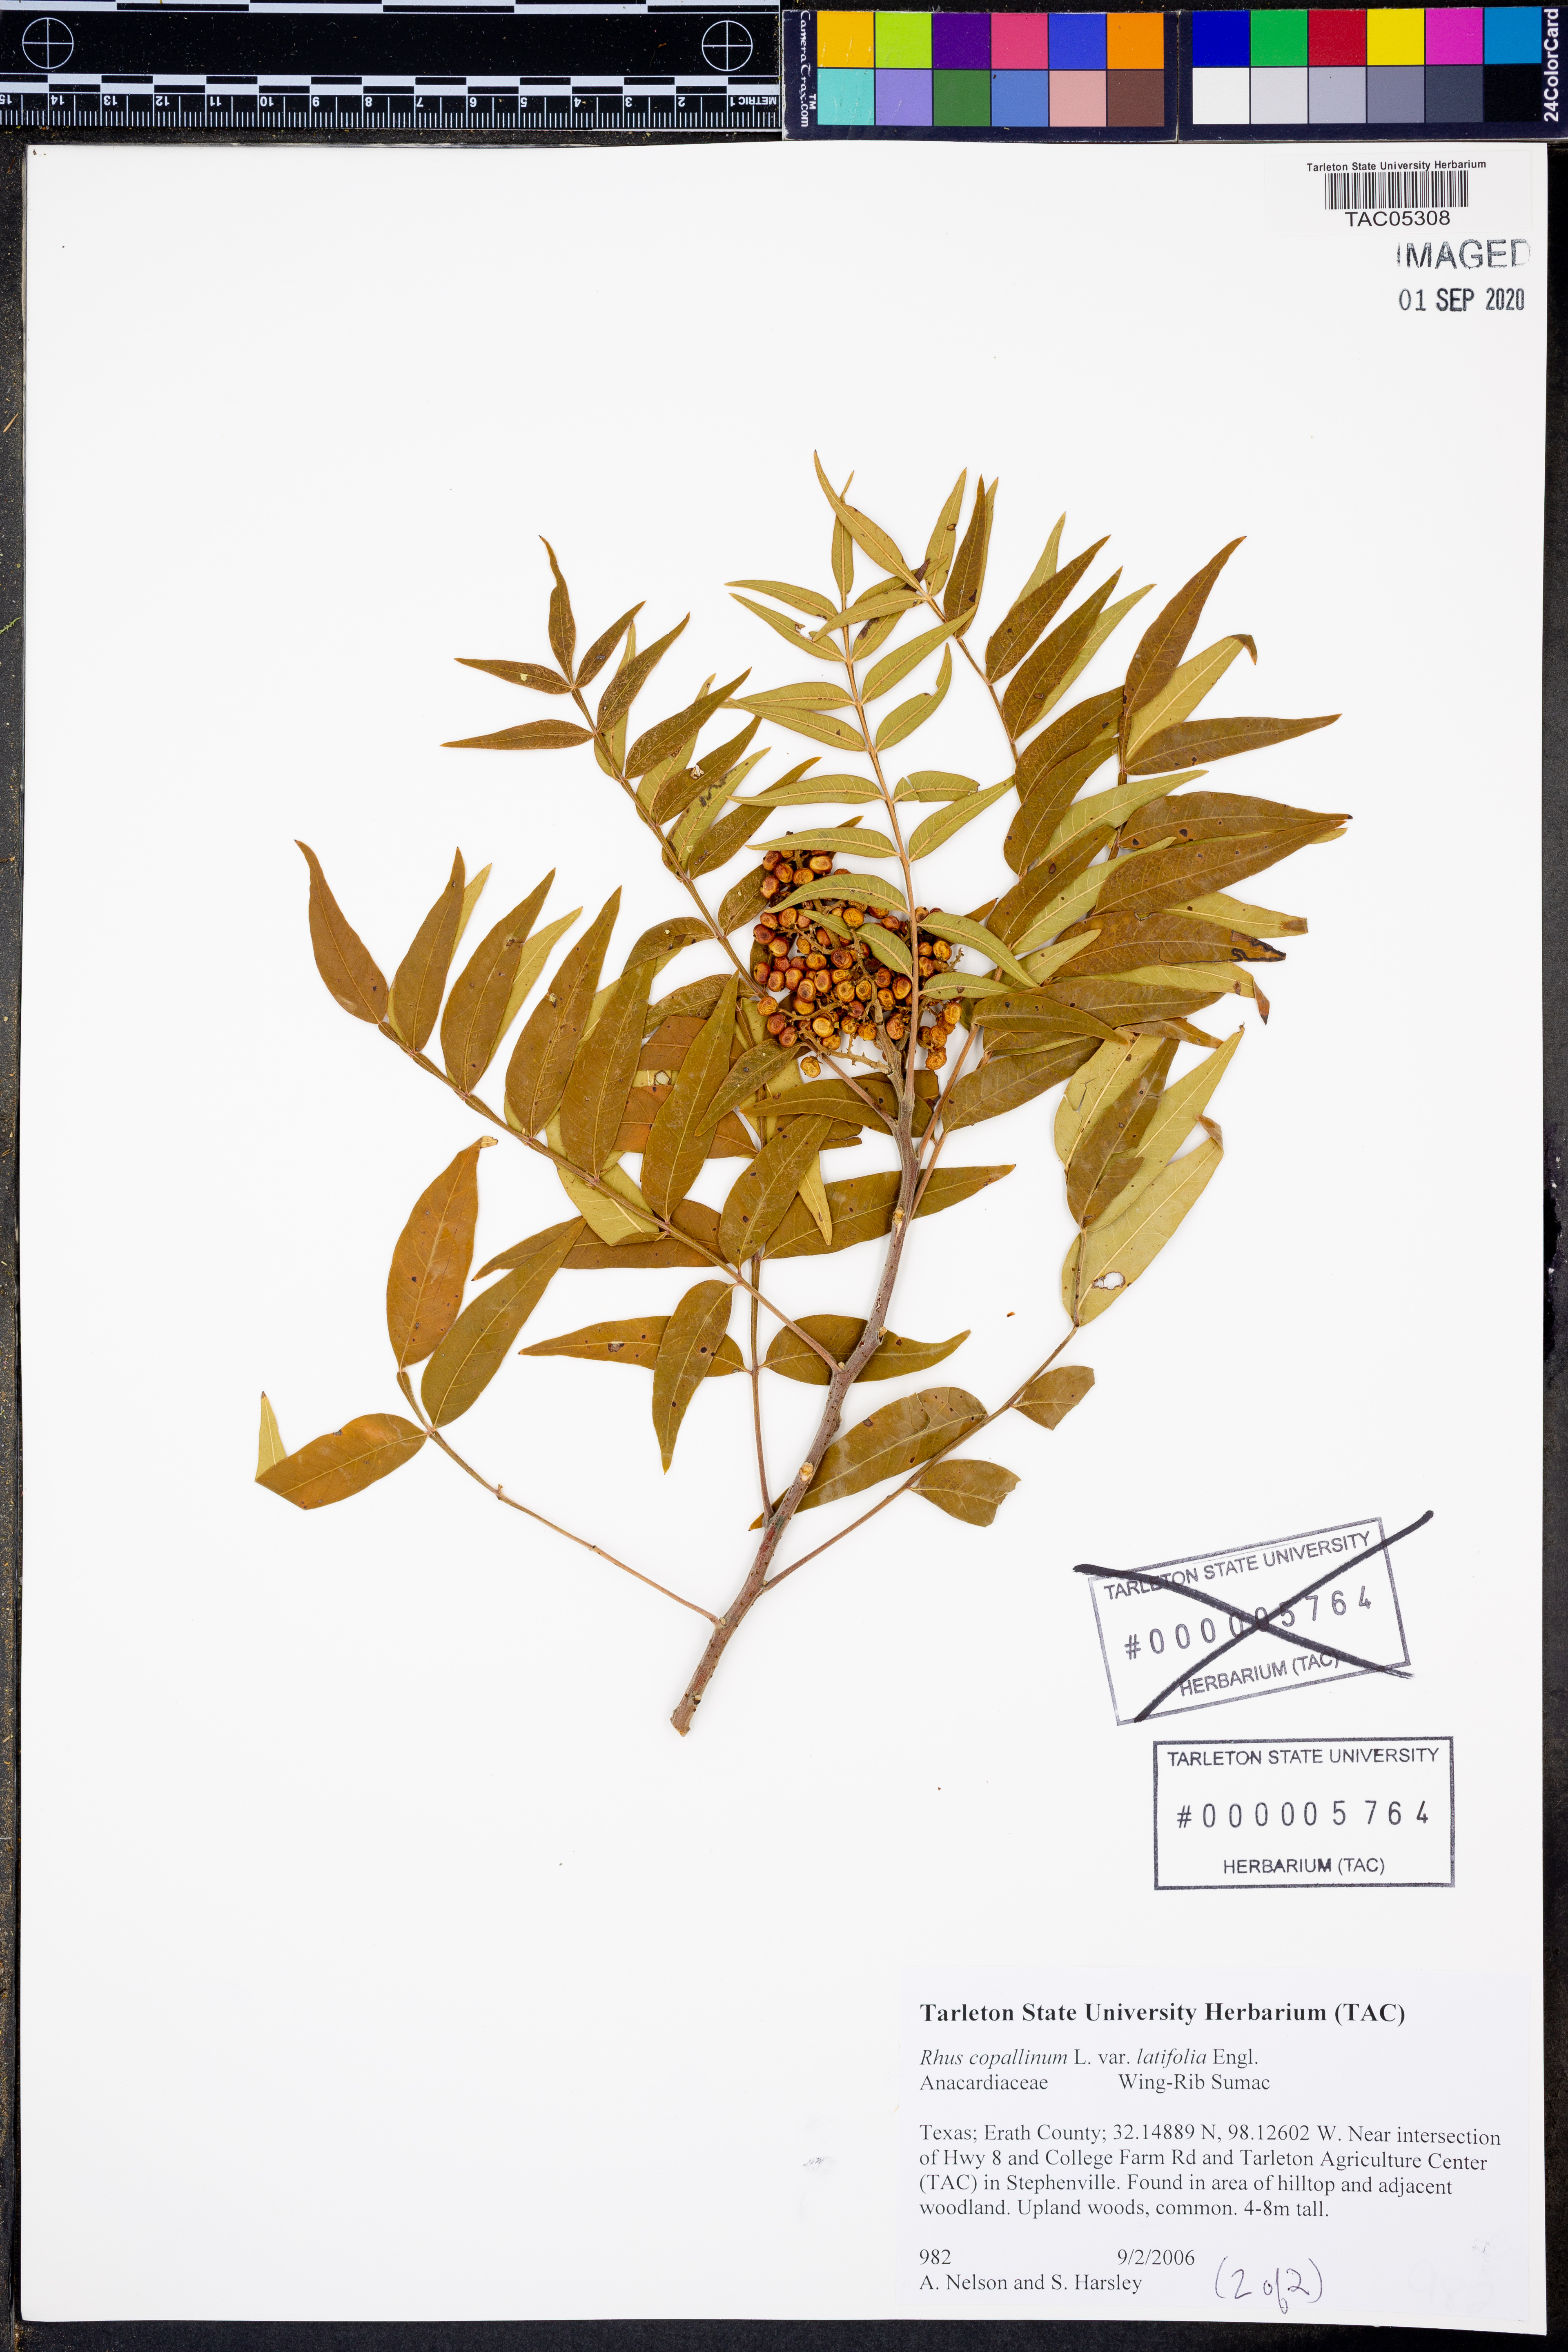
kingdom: Plantae
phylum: Tracheophyta
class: Magnoliopsida
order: Sapindales
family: Anacardiaceae
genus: Rhus
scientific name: Rhus lanceolata
